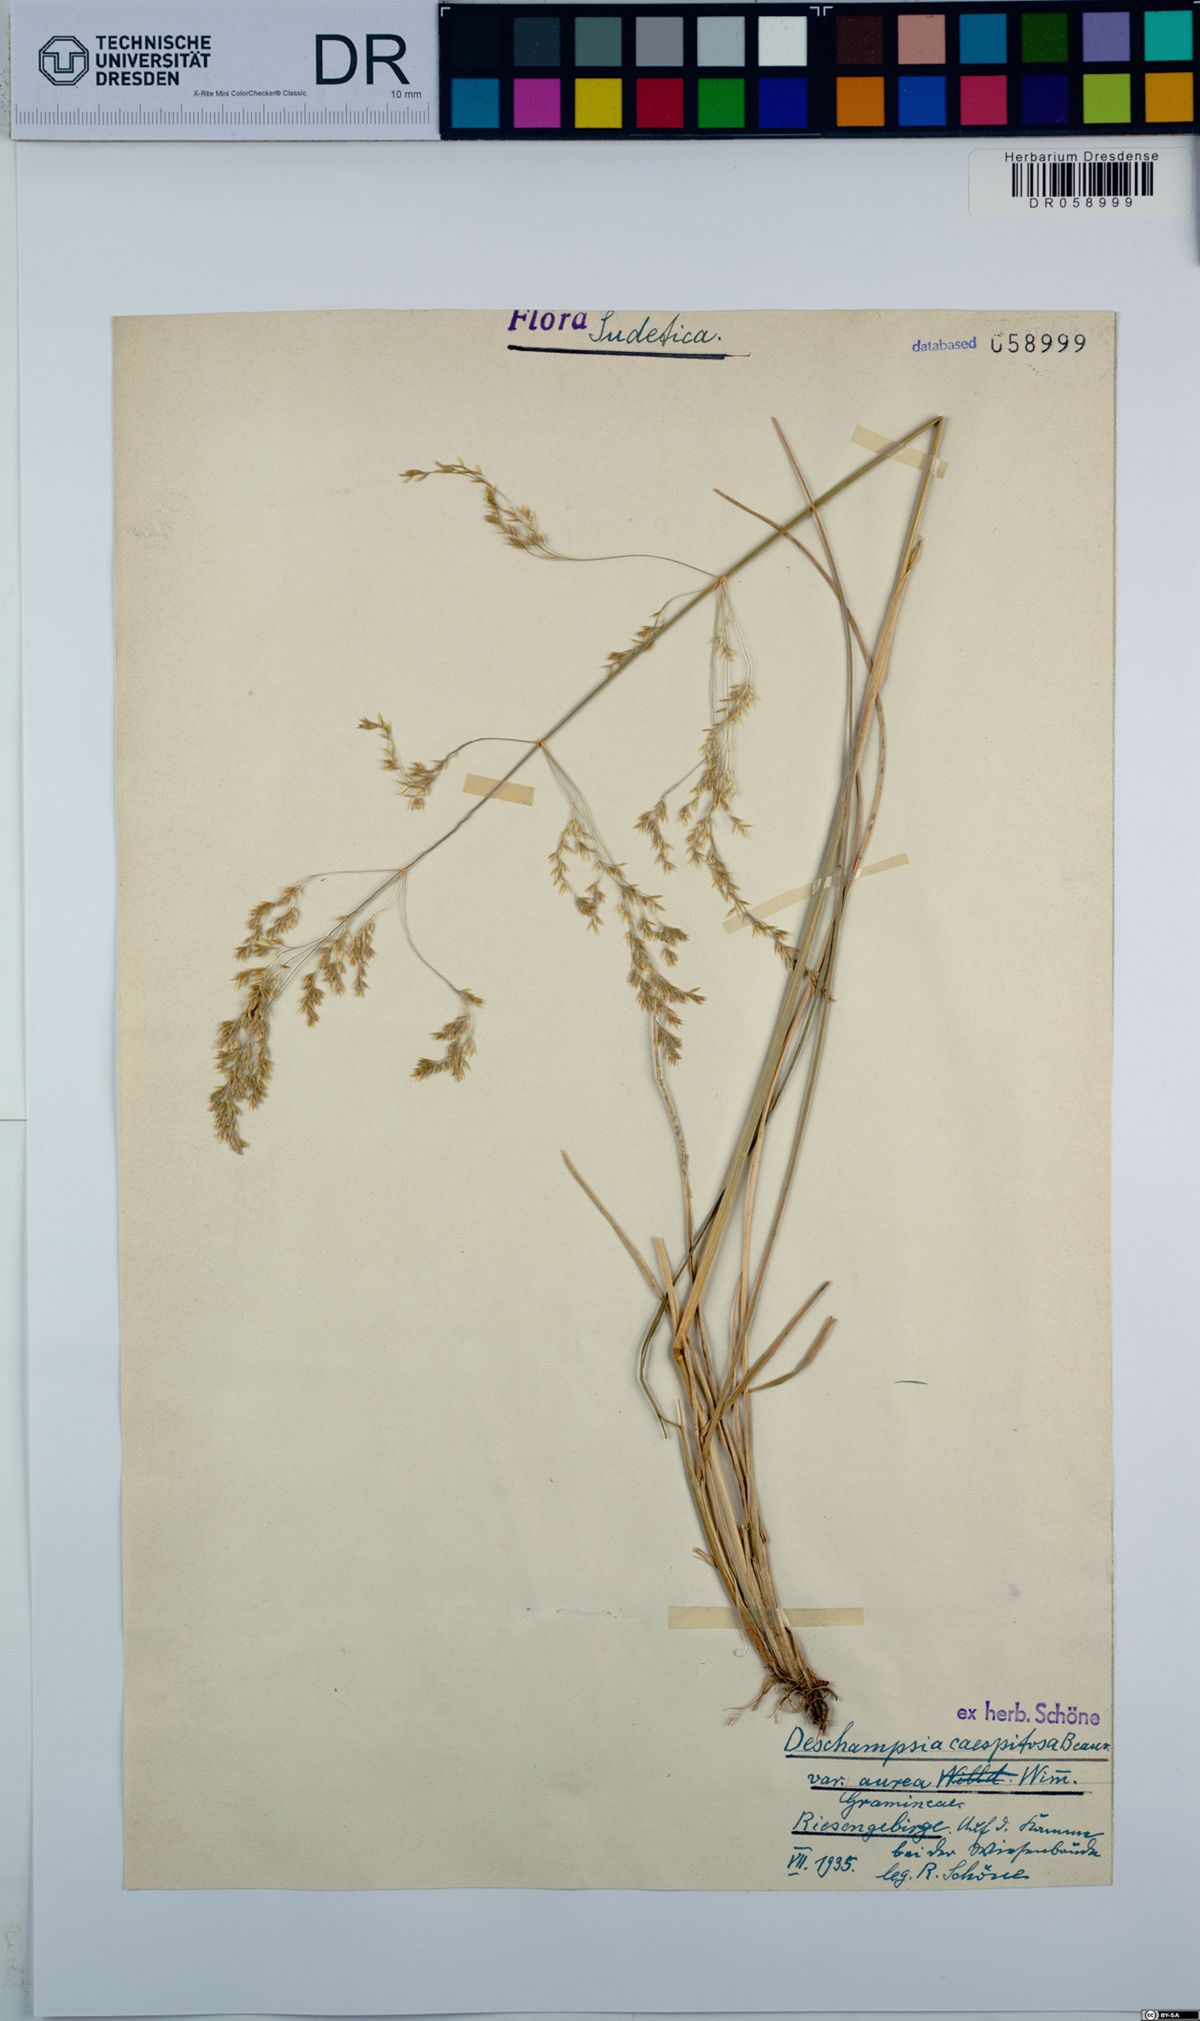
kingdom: Plantae
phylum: Tracheophyta
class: Liliopsida
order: Poales
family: Poaceae
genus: Deschampsia
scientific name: Deschampsia cespitosa
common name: Tufted hair-grass
